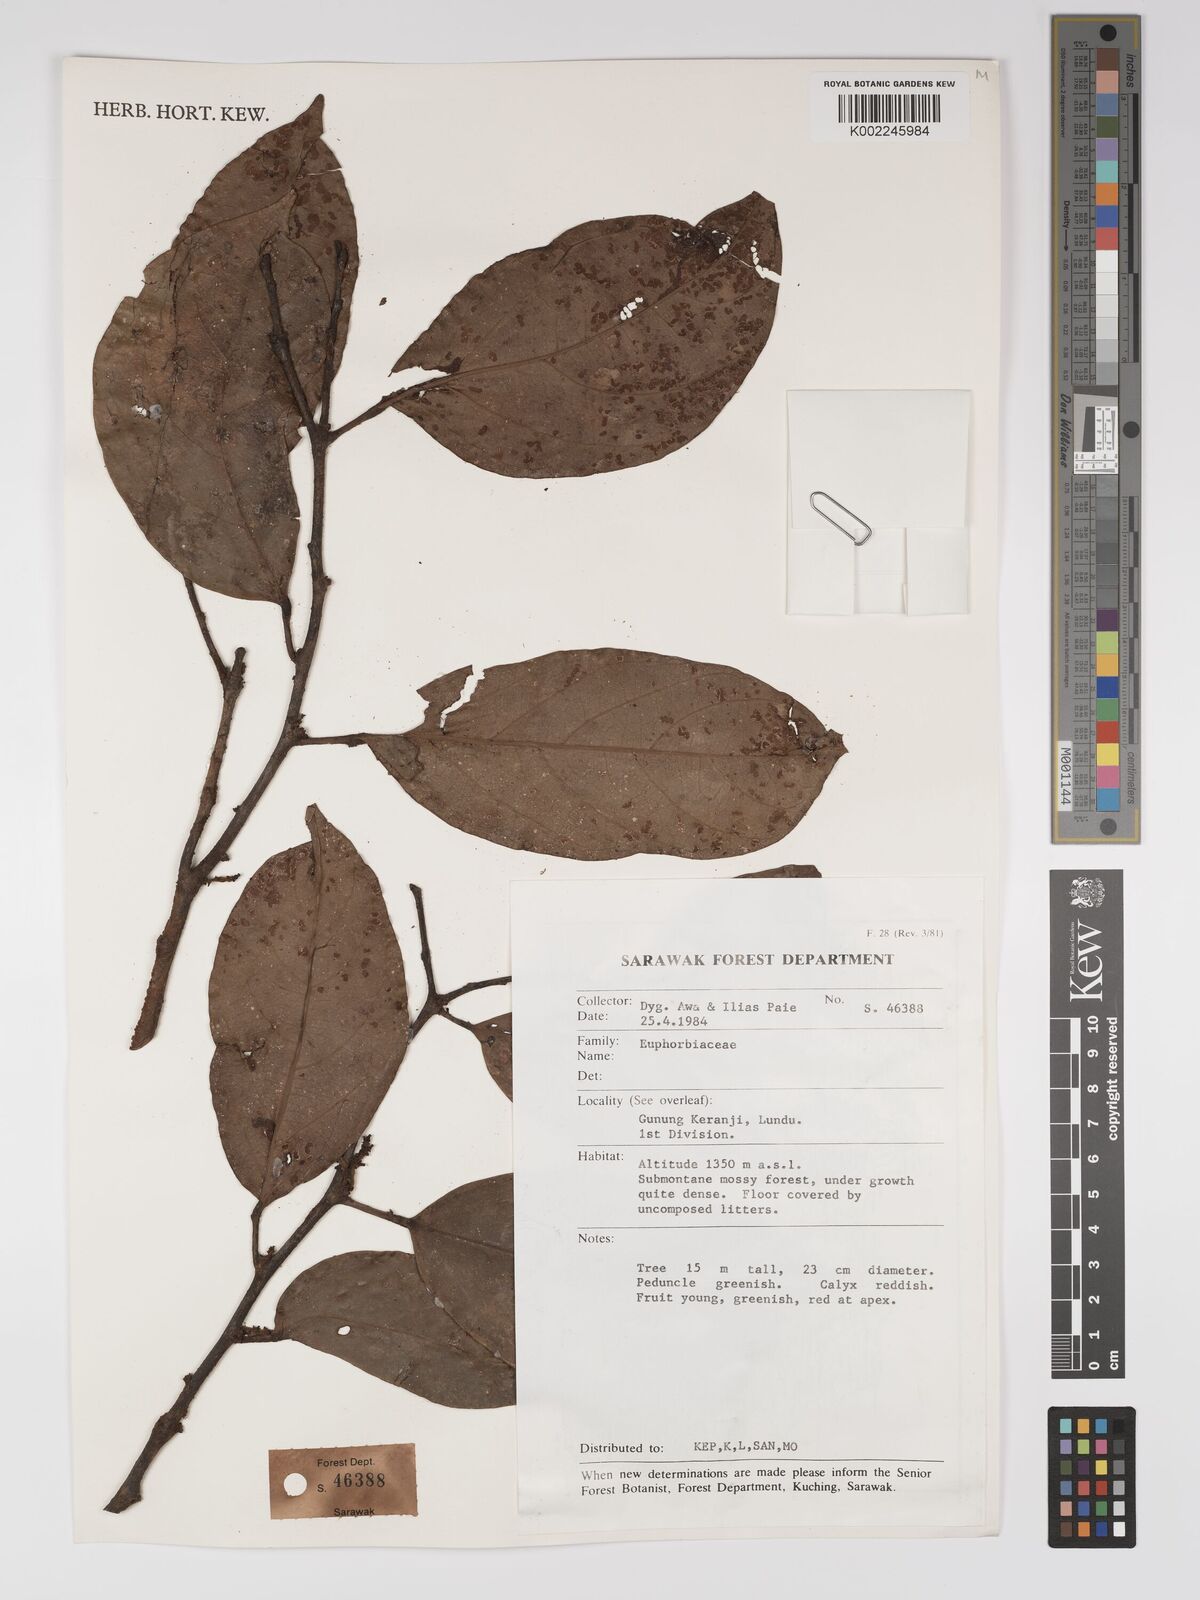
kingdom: Plantae
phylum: Tracheophyta
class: Magnoliopsida
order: Malpighiales
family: Euphorbiaceae
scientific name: Euphorbiaceae
